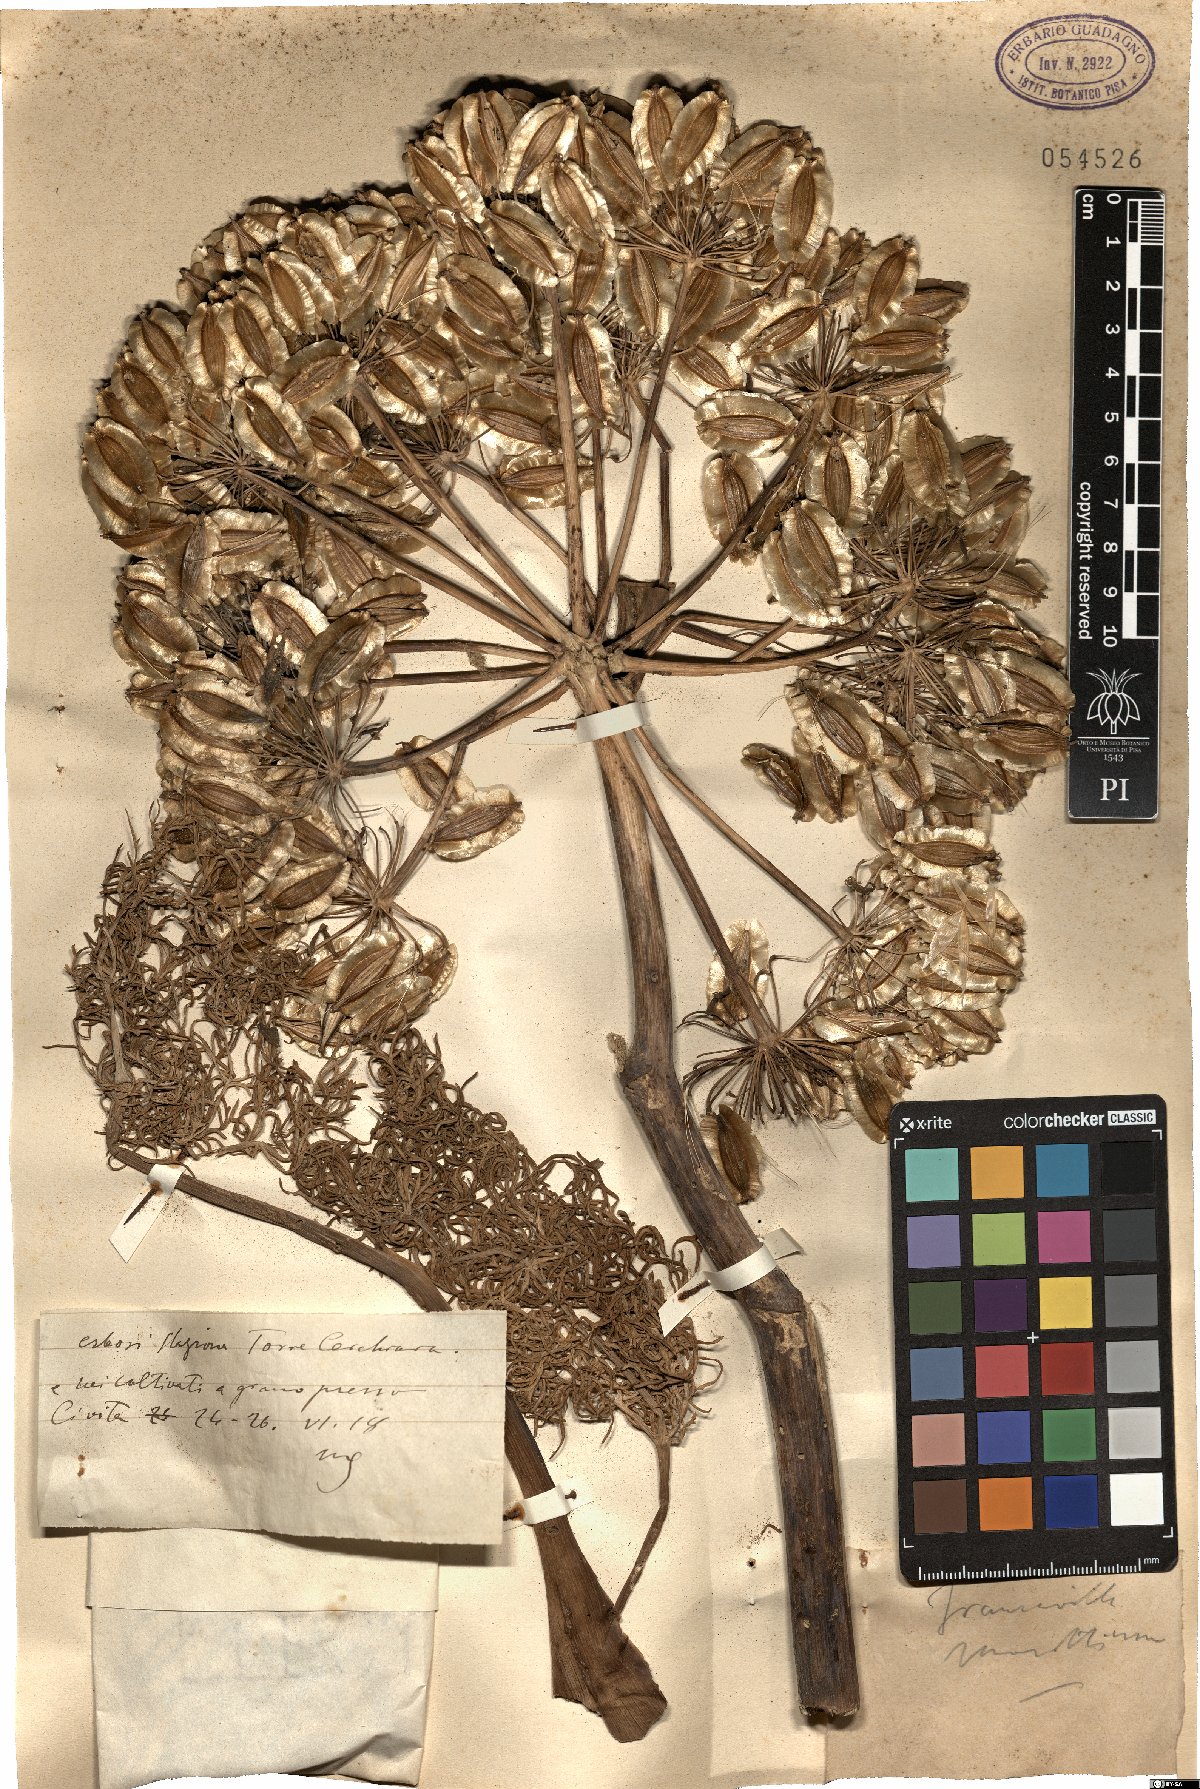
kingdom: Plantae
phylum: Tracheophyta
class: Magnoliopsida
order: Apiales
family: Apiaceae
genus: Thapsia
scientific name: Thapsia
